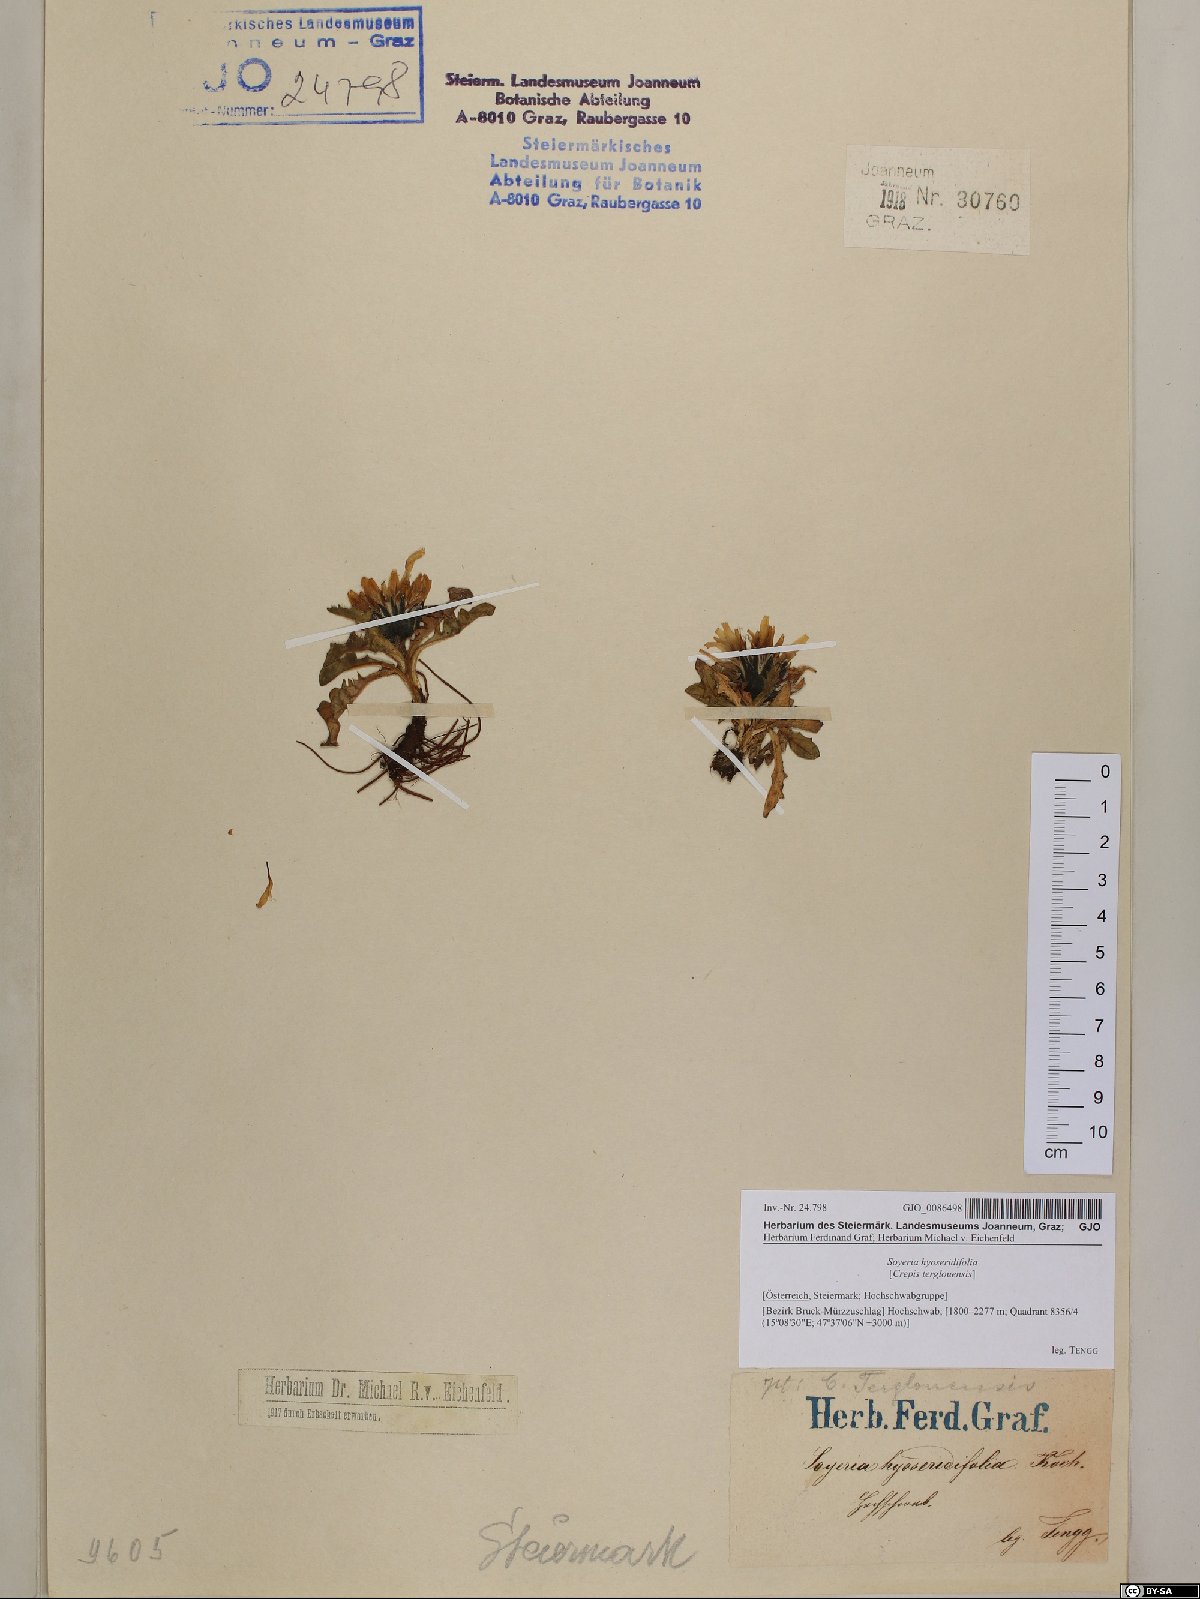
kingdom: Plantae
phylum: Tracheophyta
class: Magnoliopsida
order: Asterales
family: Asteraceae
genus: Crepis
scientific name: Crepis terglouensis
